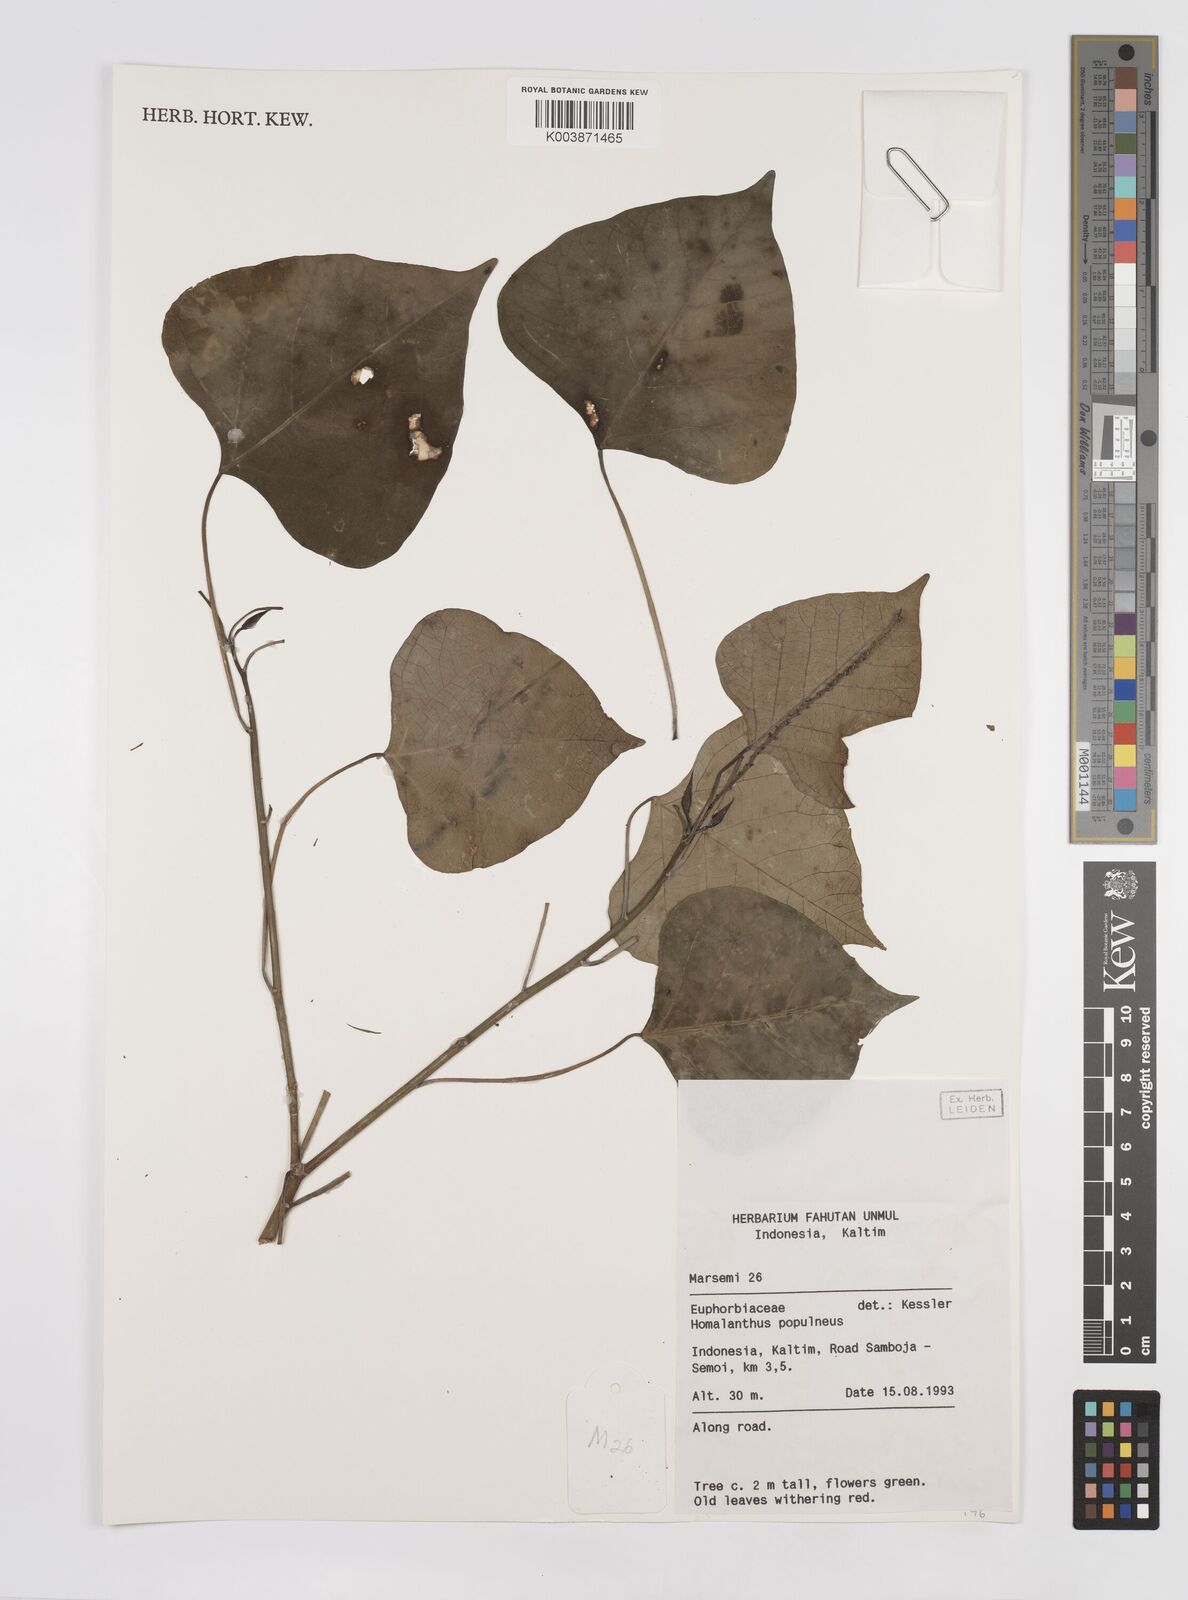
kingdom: Plantae
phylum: Tracheophyta
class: Magnoliopsida
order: Malpighiales
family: Euphorbiaceae
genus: Homalanthus
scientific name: Homalanthus populneus
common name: Spurge
